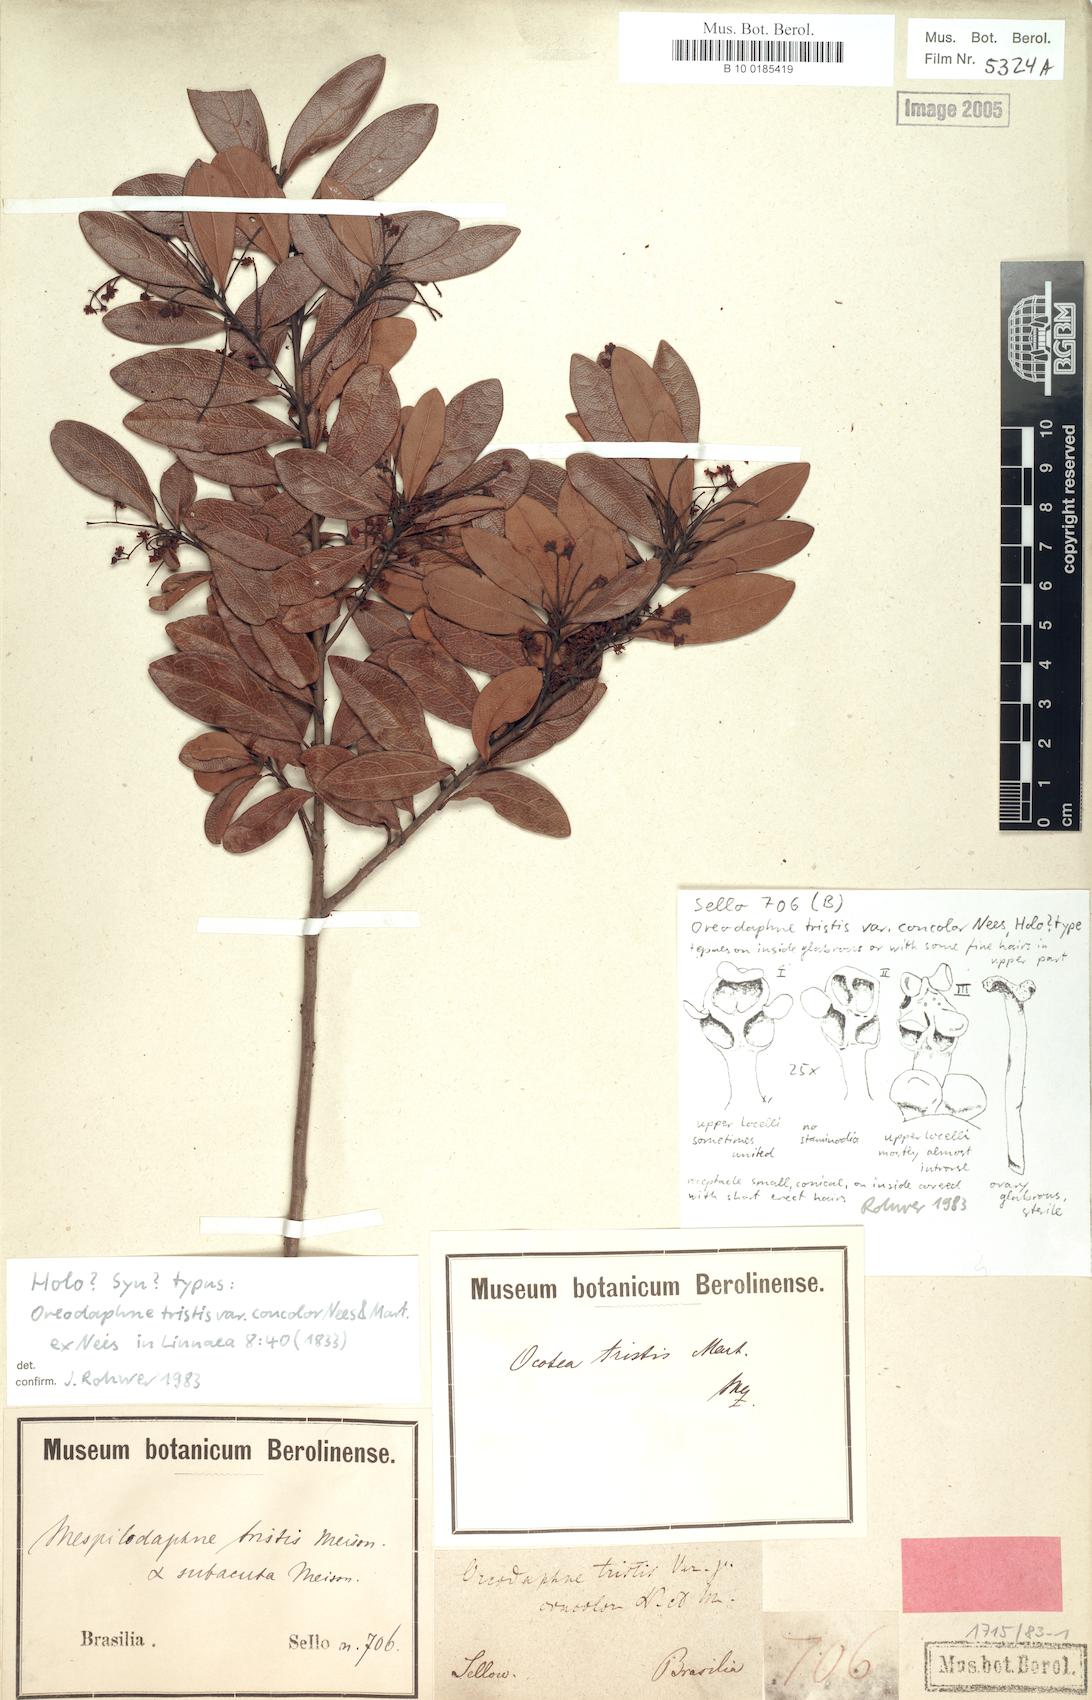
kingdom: Plantae
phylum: Tracheophyta
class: Magnoliopsida
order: Laurales
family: Lauraceae
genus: Mespilodaphne
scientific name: Mespilodaphne tristis
